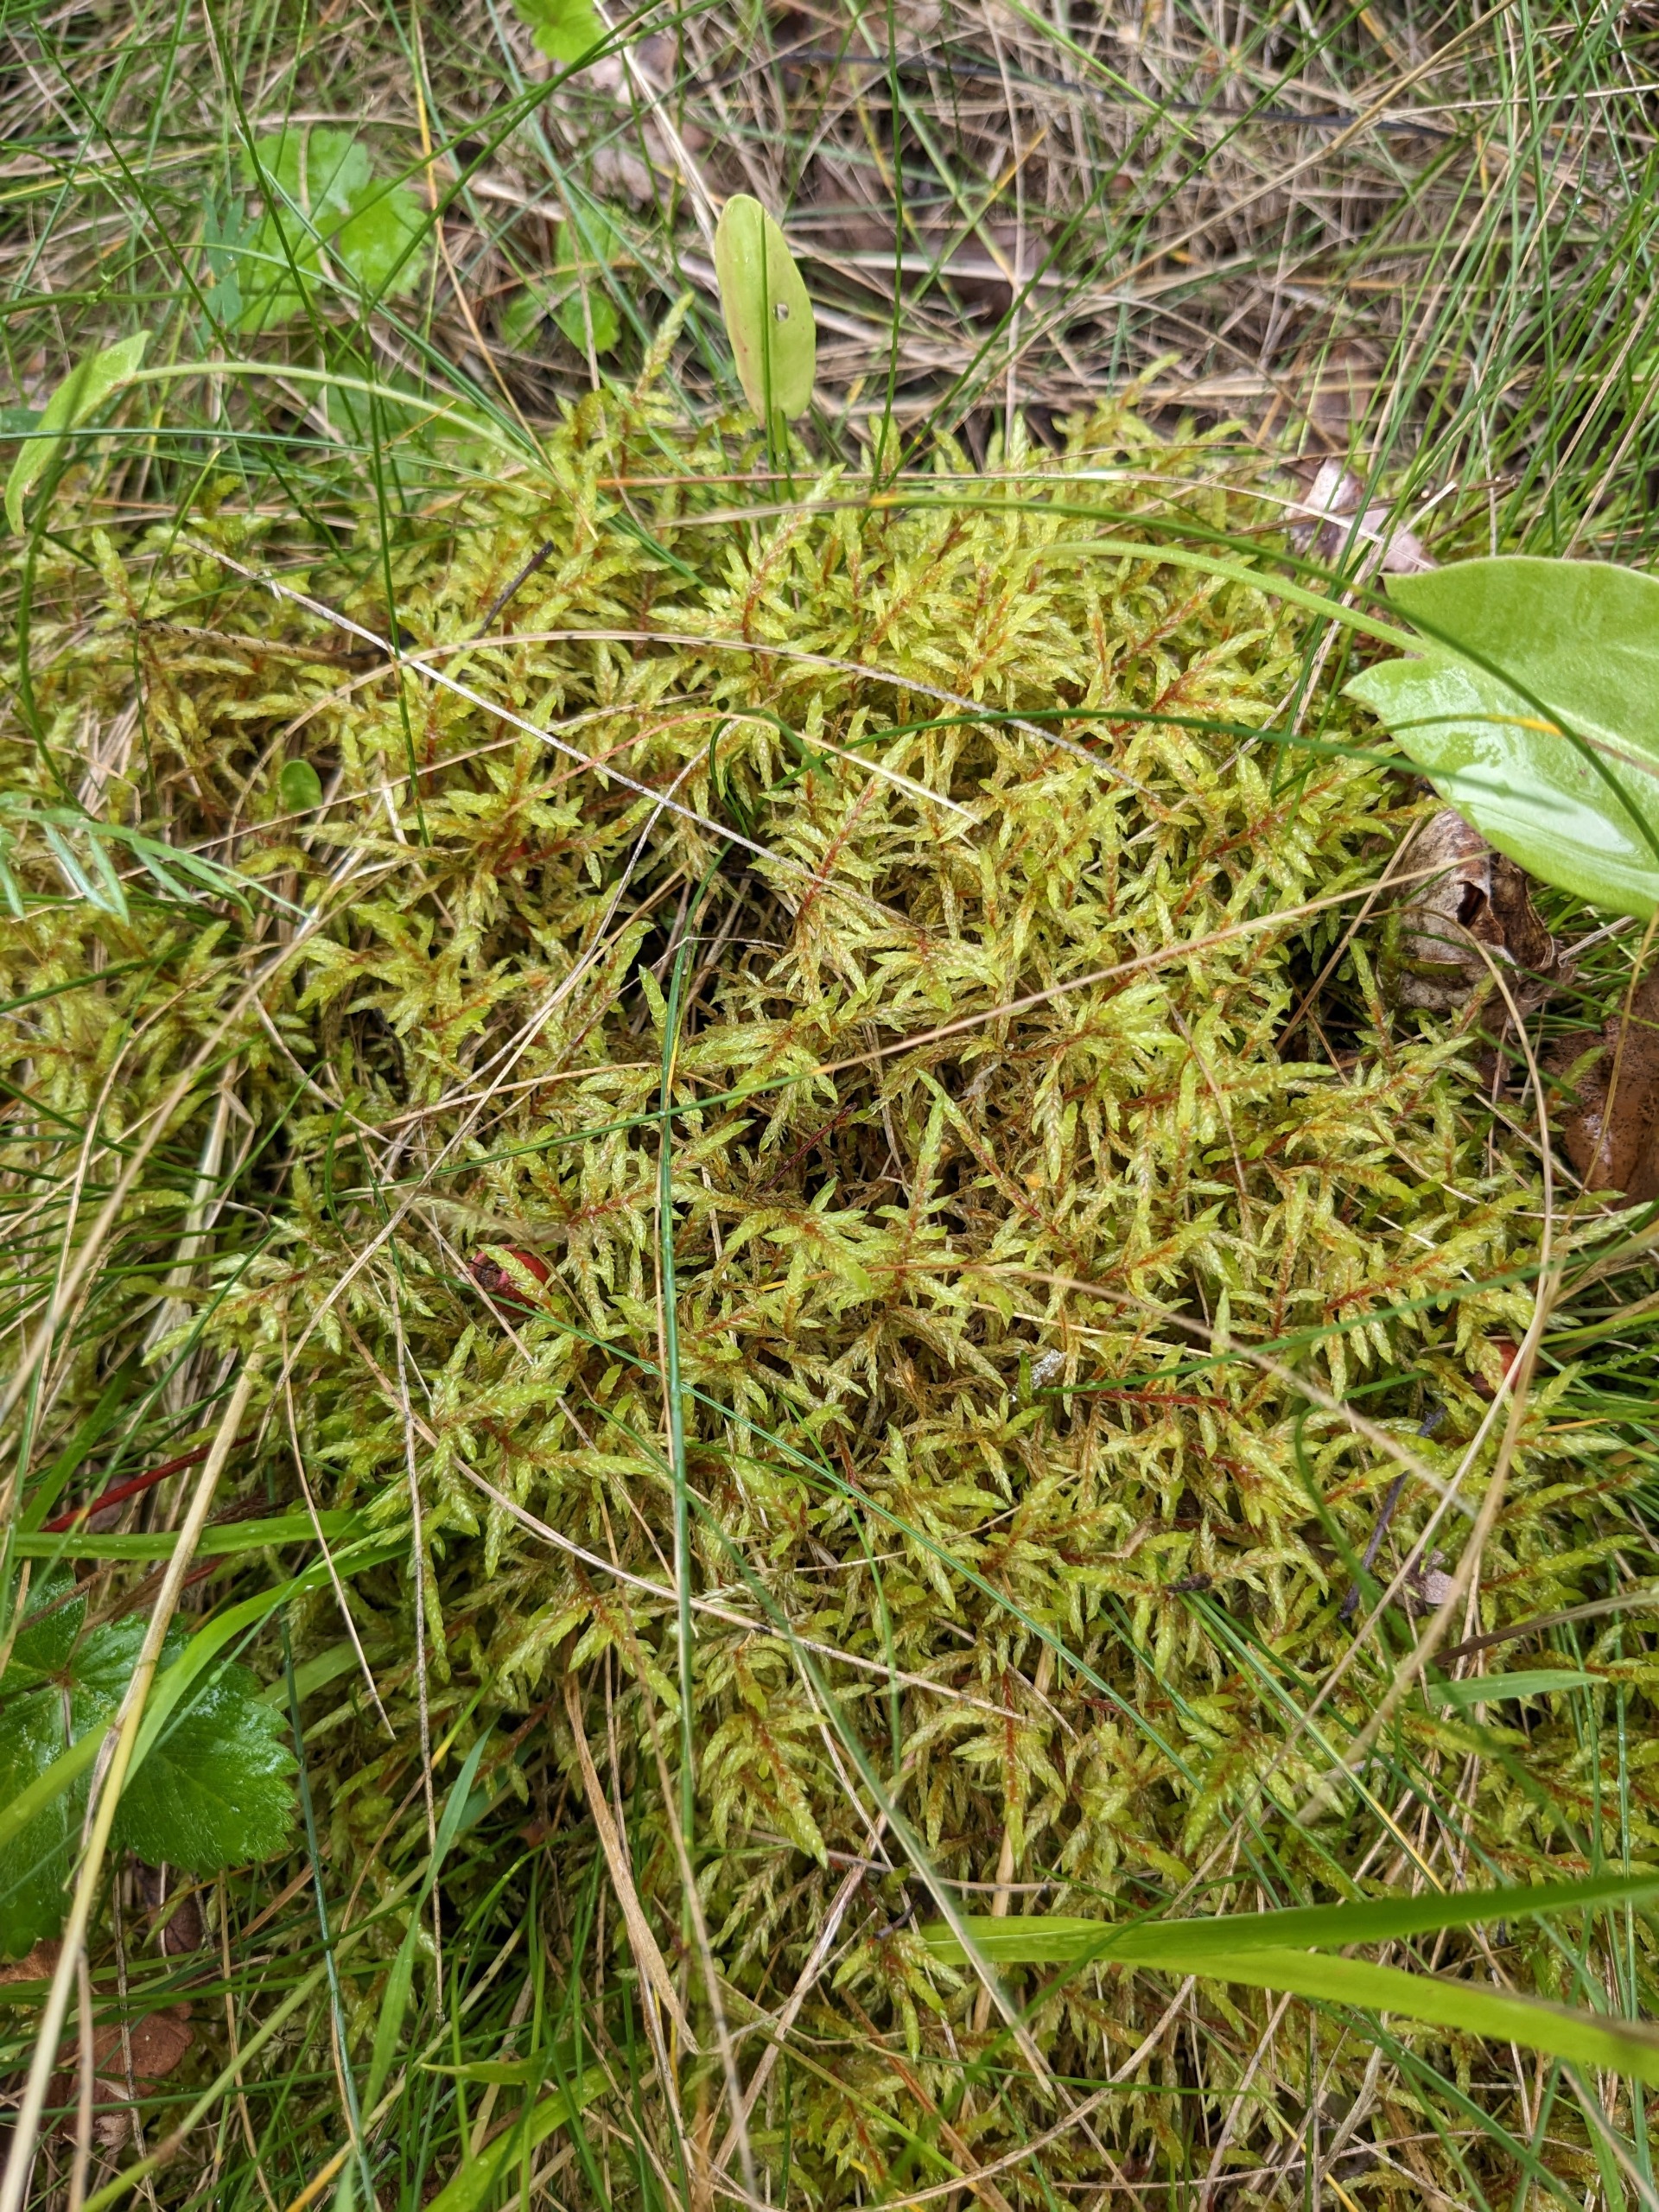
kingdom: Plantae
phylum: Bryophyta
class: Bryopsida
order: Hypnales
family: Hylocomiaceae
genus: Pleurozium
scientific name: Pleurozium schreberi
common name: Trind fyrremos
